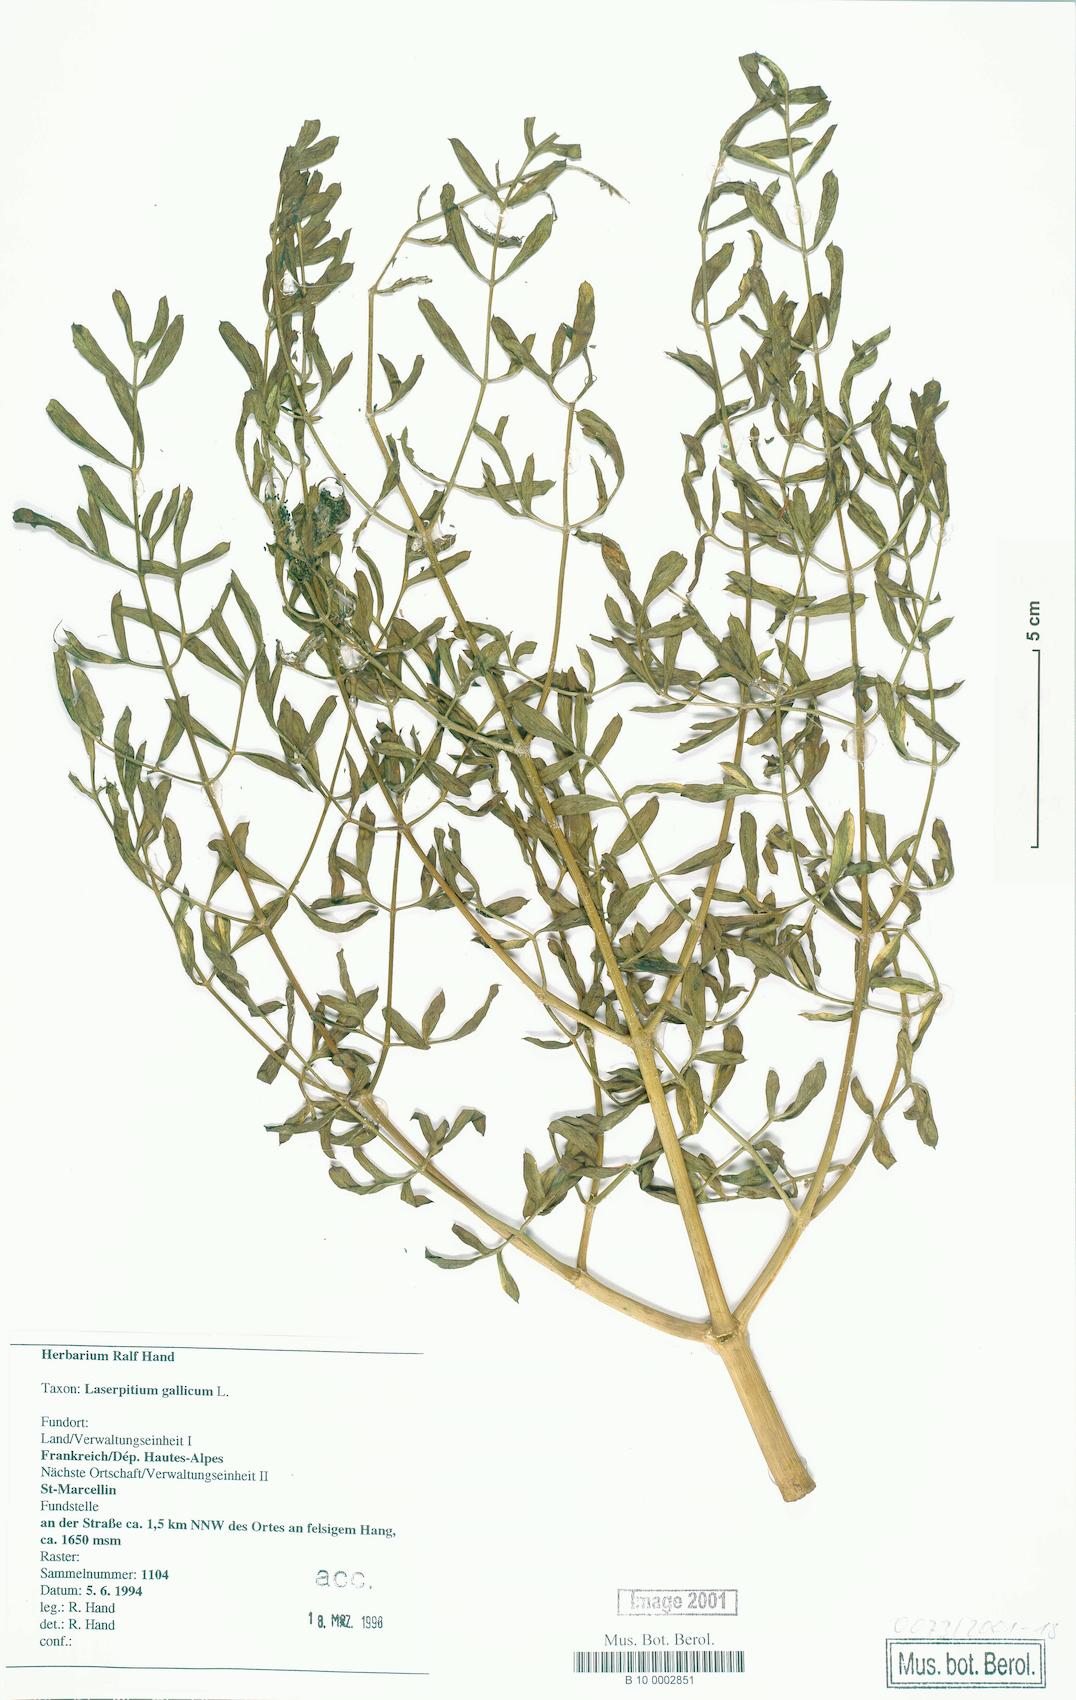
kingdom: Plantae
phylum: Tracheophyta
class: Magnoliopsida
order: Apiales
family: Apiaceae
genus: Laserpitium
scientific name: Laserpitium gallicum
